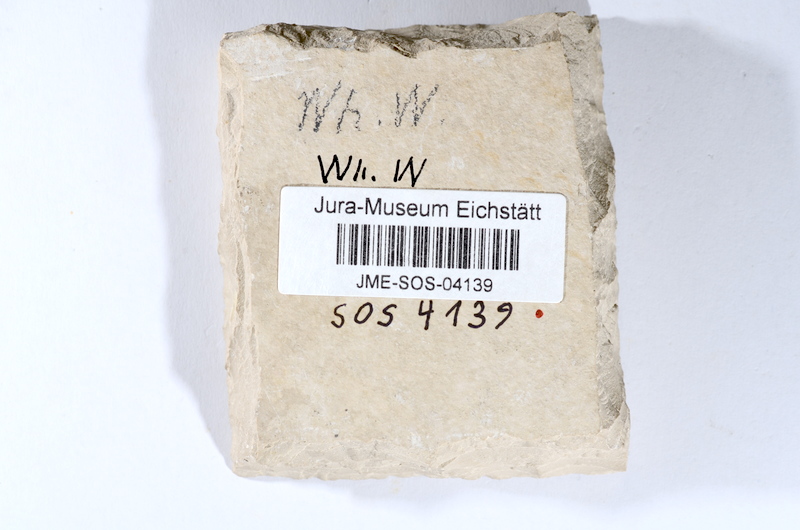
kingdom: Animalia
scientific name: Animalia
